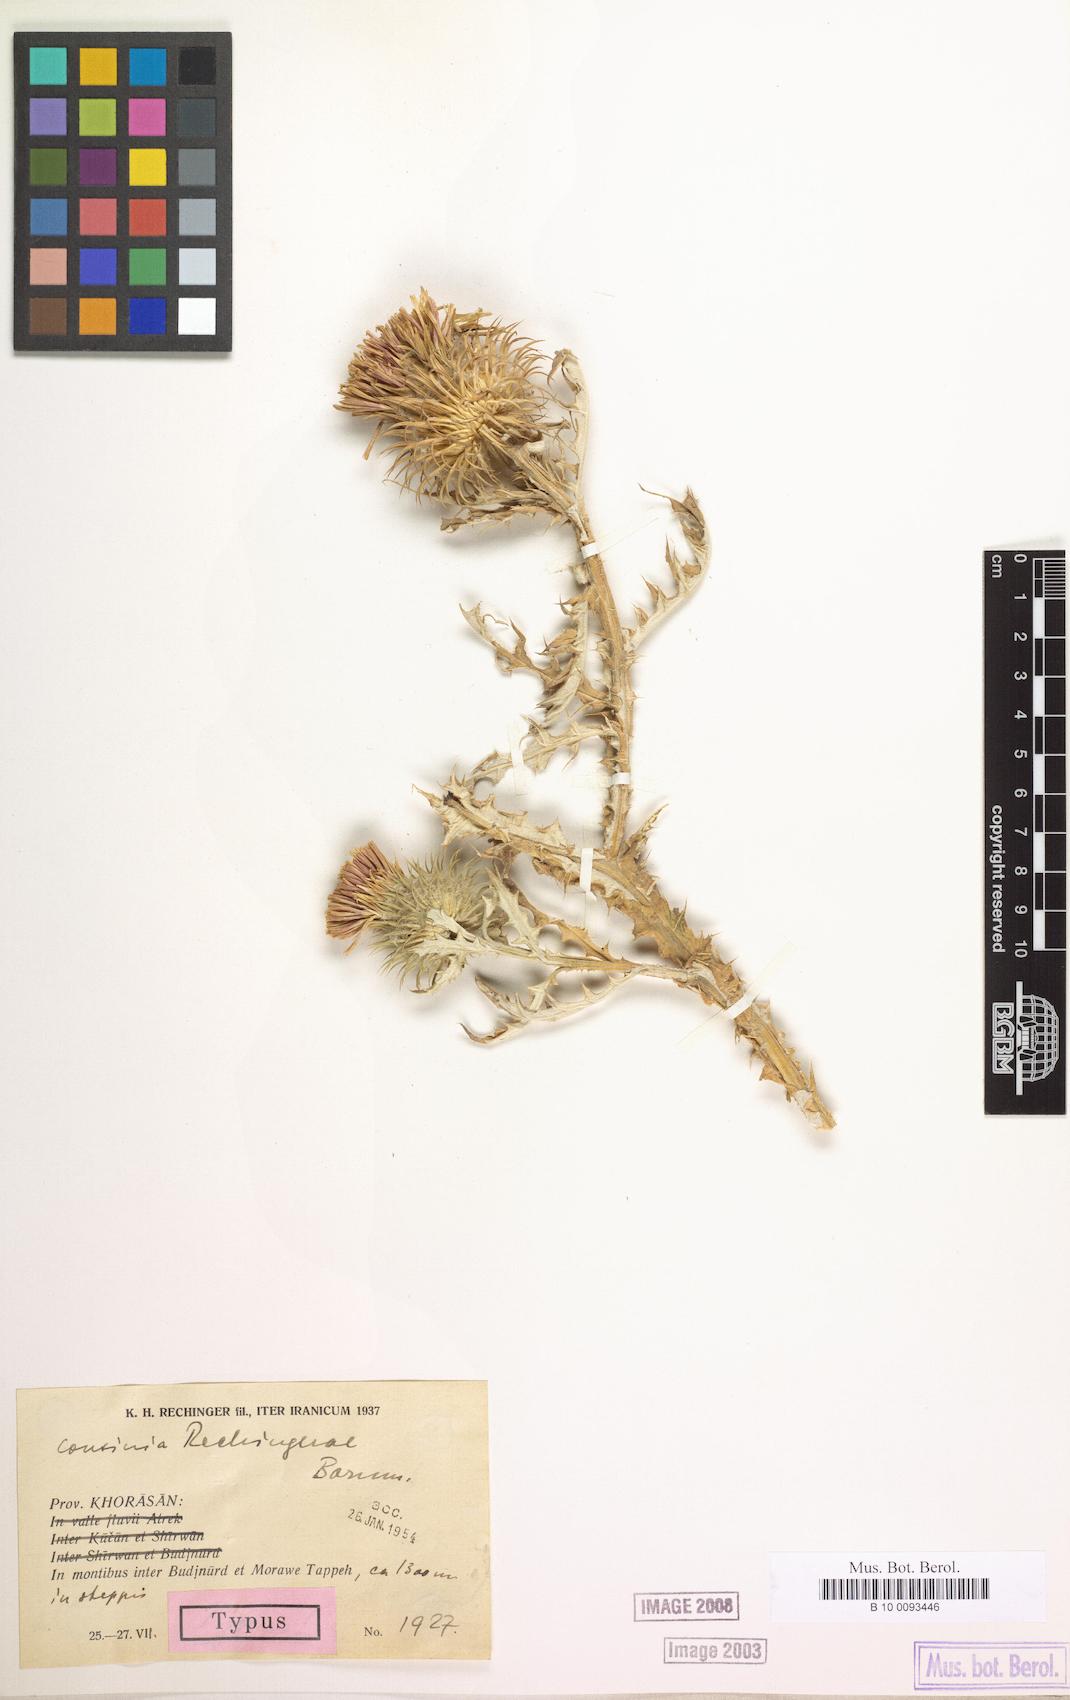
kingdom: Plantae
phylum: Tracheophyta
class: Magnoliopsida
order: Asterales
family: Asteraceae
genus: Cousinia
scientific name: Cousinia rechingerae
